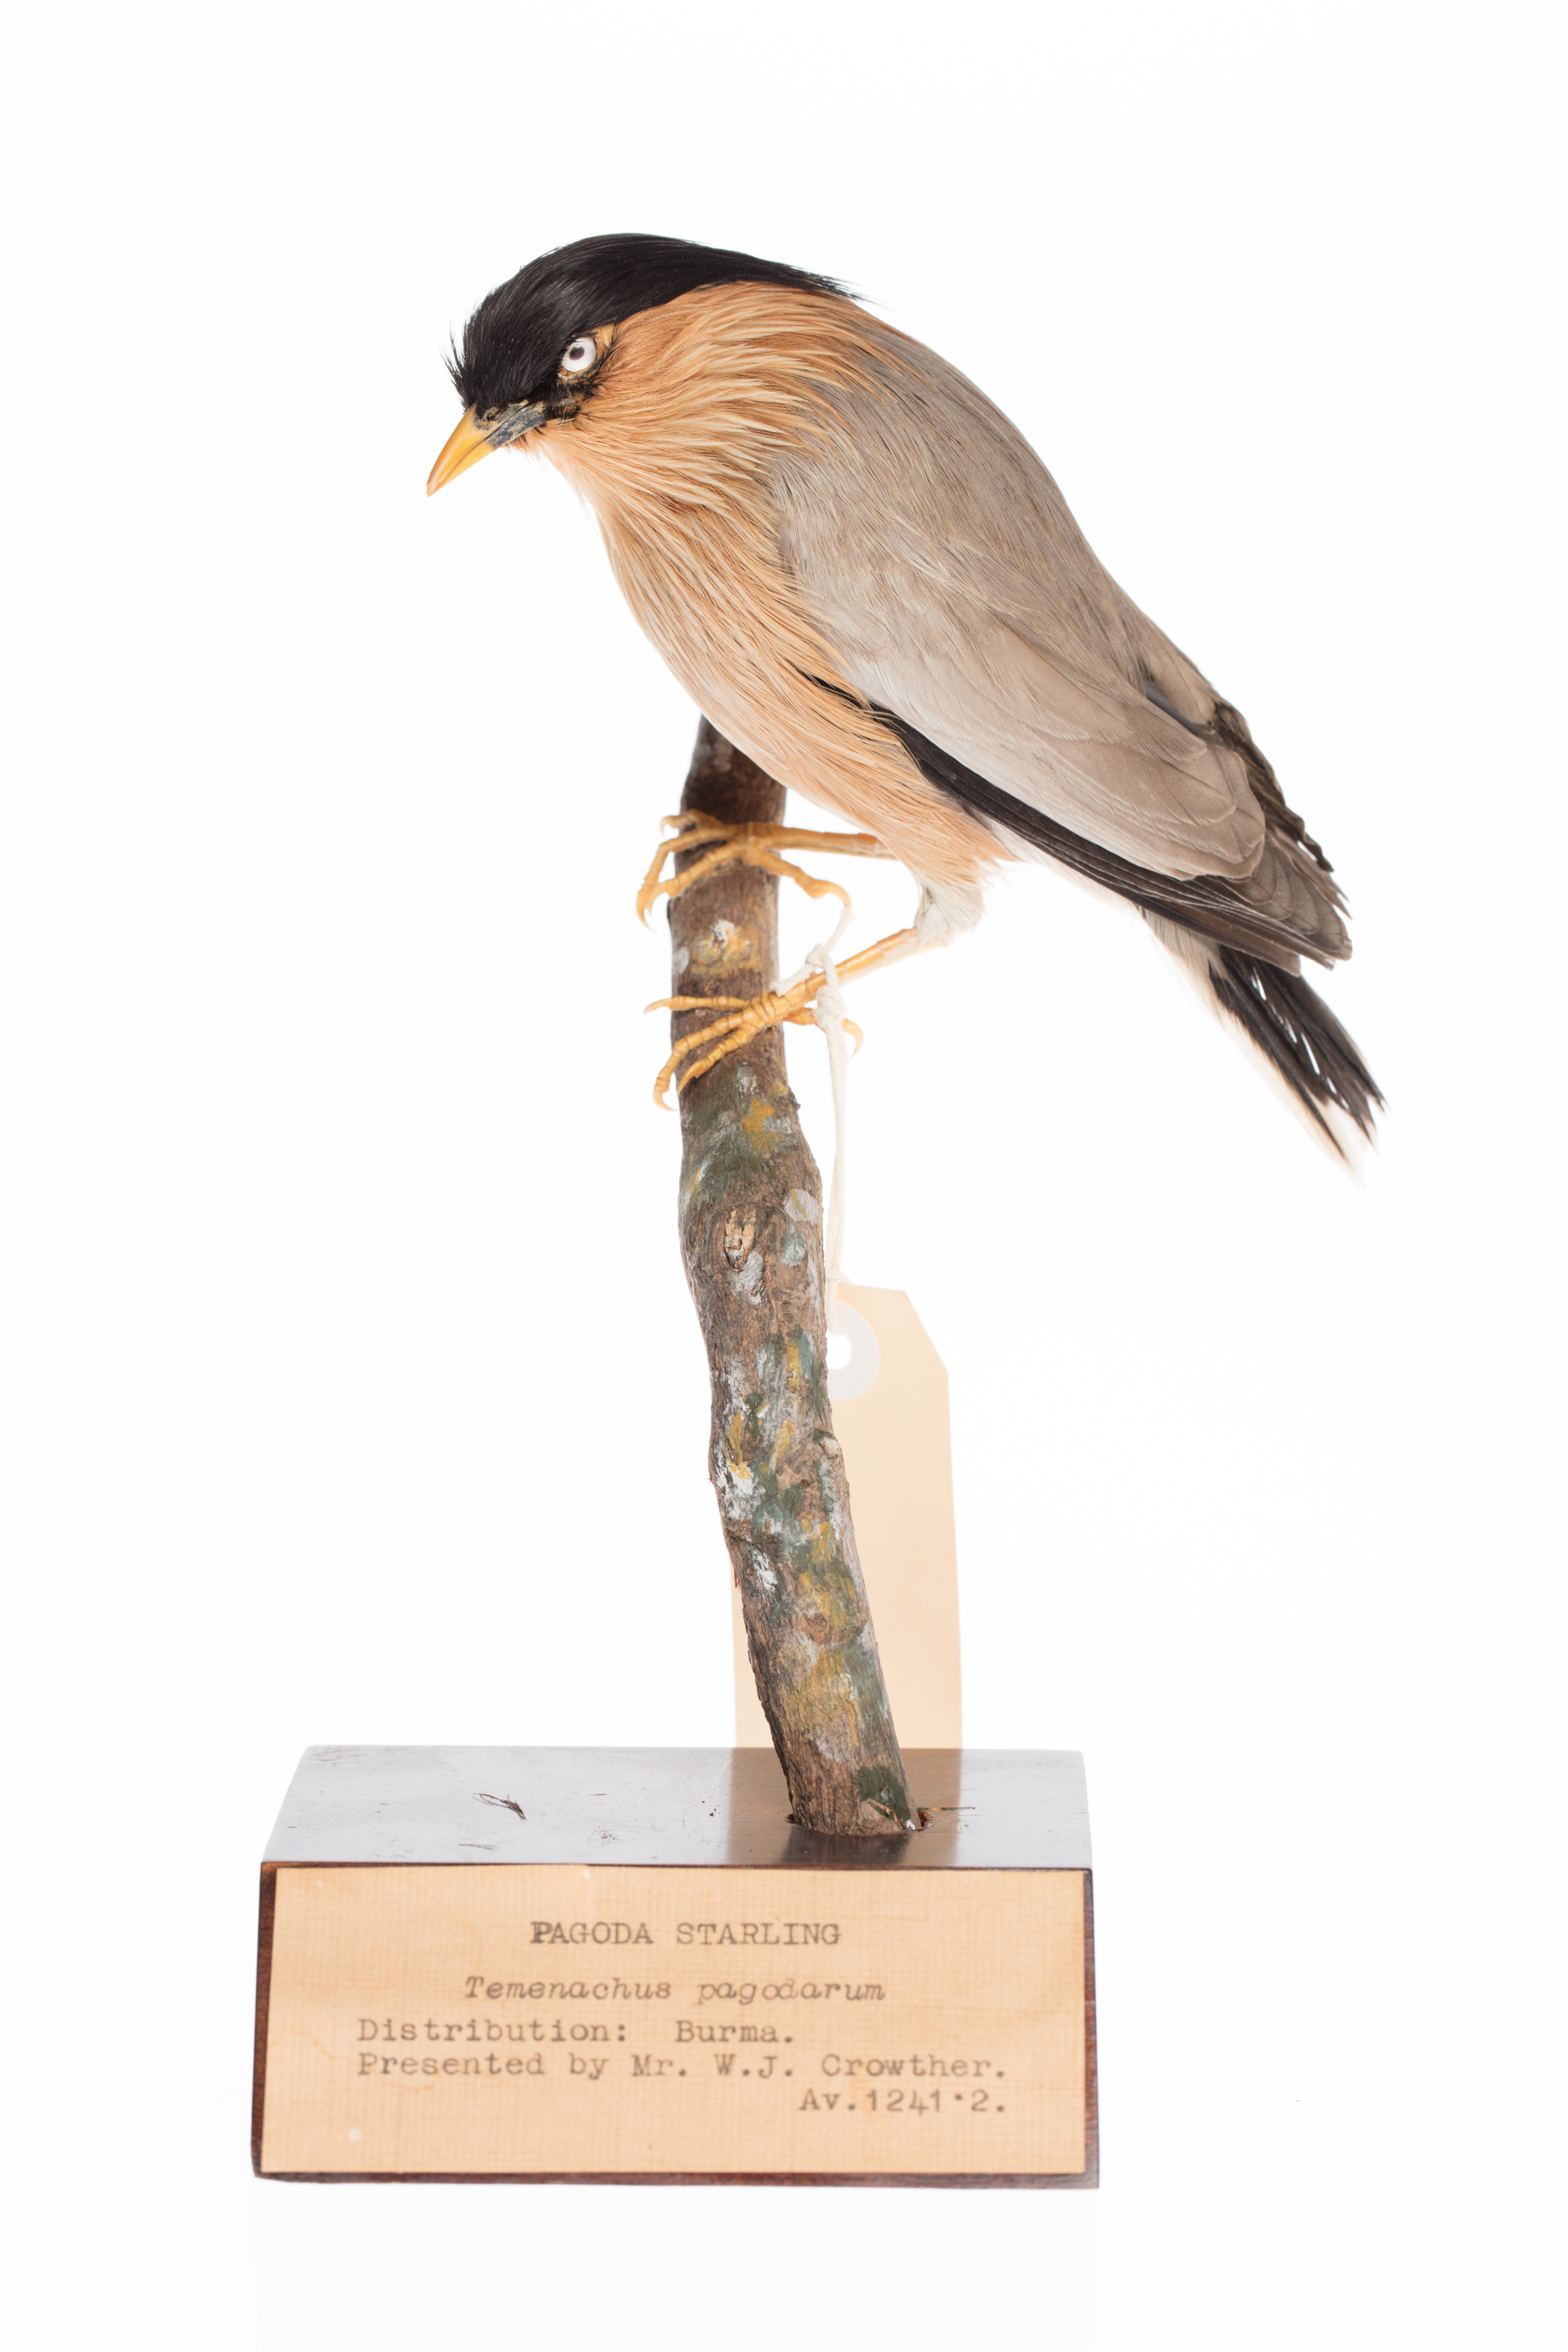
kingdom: Animalia
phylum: Chordata
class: Aves
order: Passeriformes
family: Sturnidae
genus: Sturnia
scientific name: Sturnia pagodarum
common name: Brahminy starling
